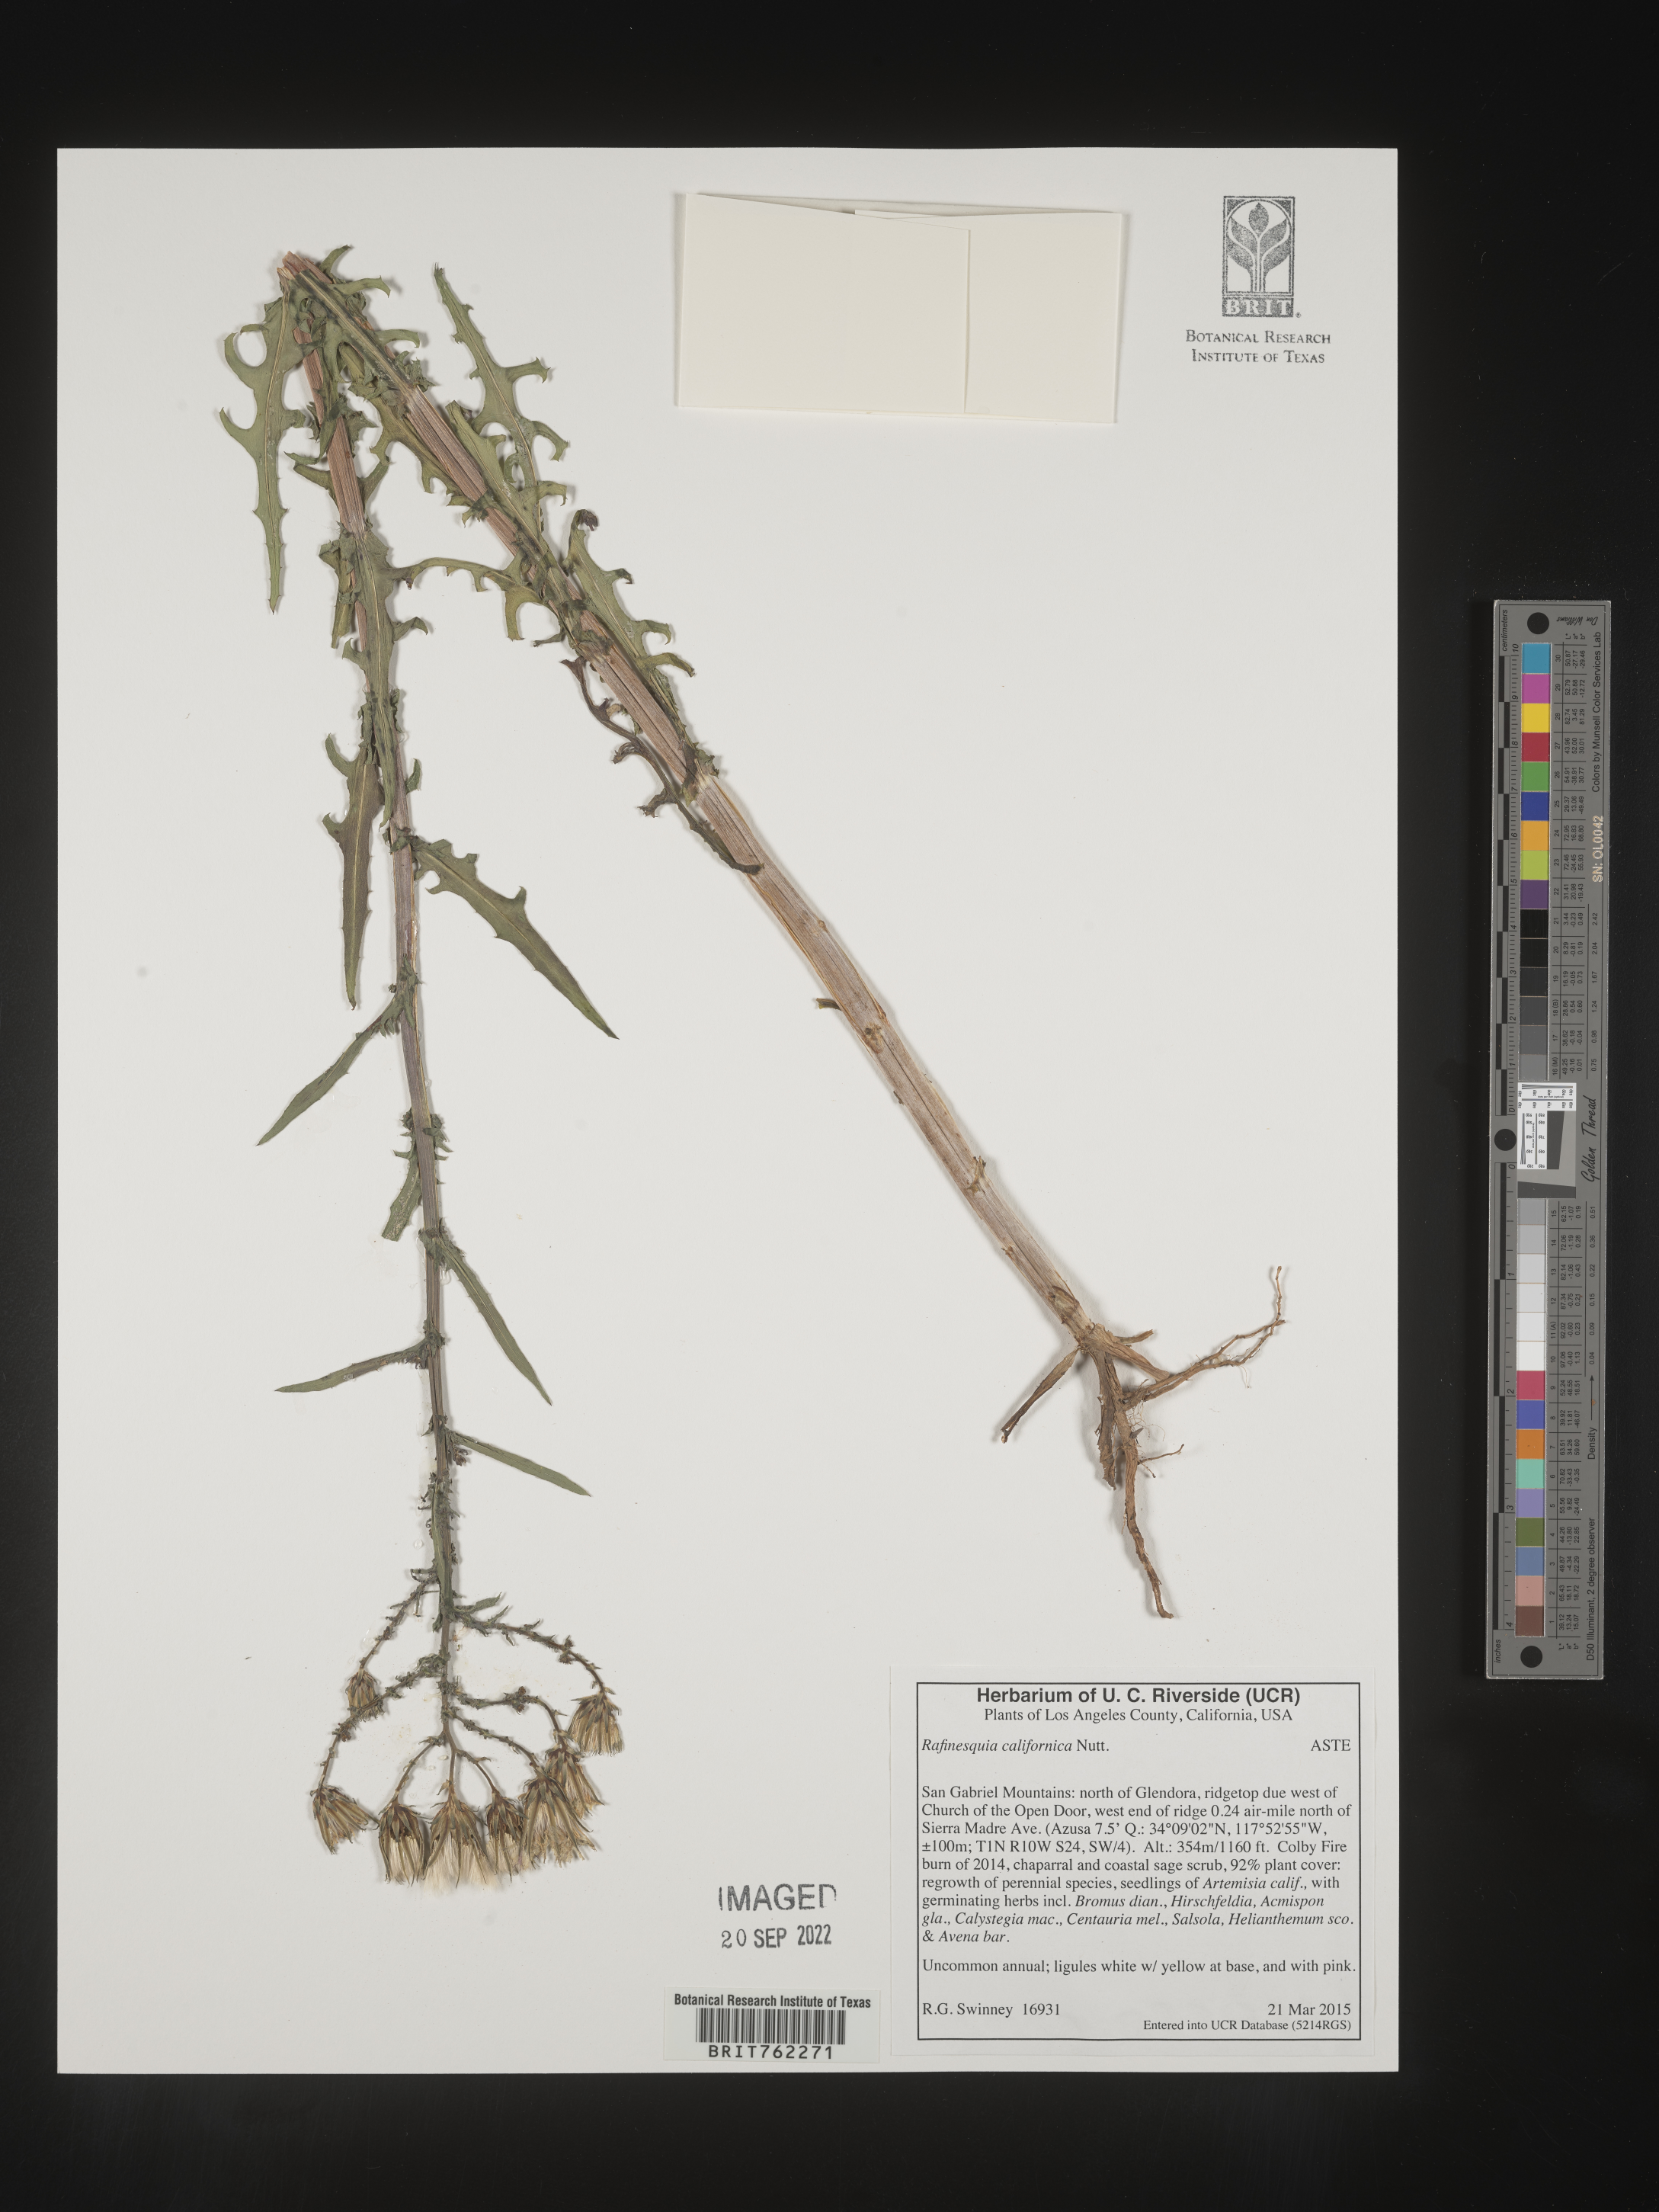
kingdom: Plantae
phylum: Tracheophyta
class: Magnoliopsida
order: Asterales
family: Asteraceae
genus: Rafinesquia
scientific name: Rafinesquia
